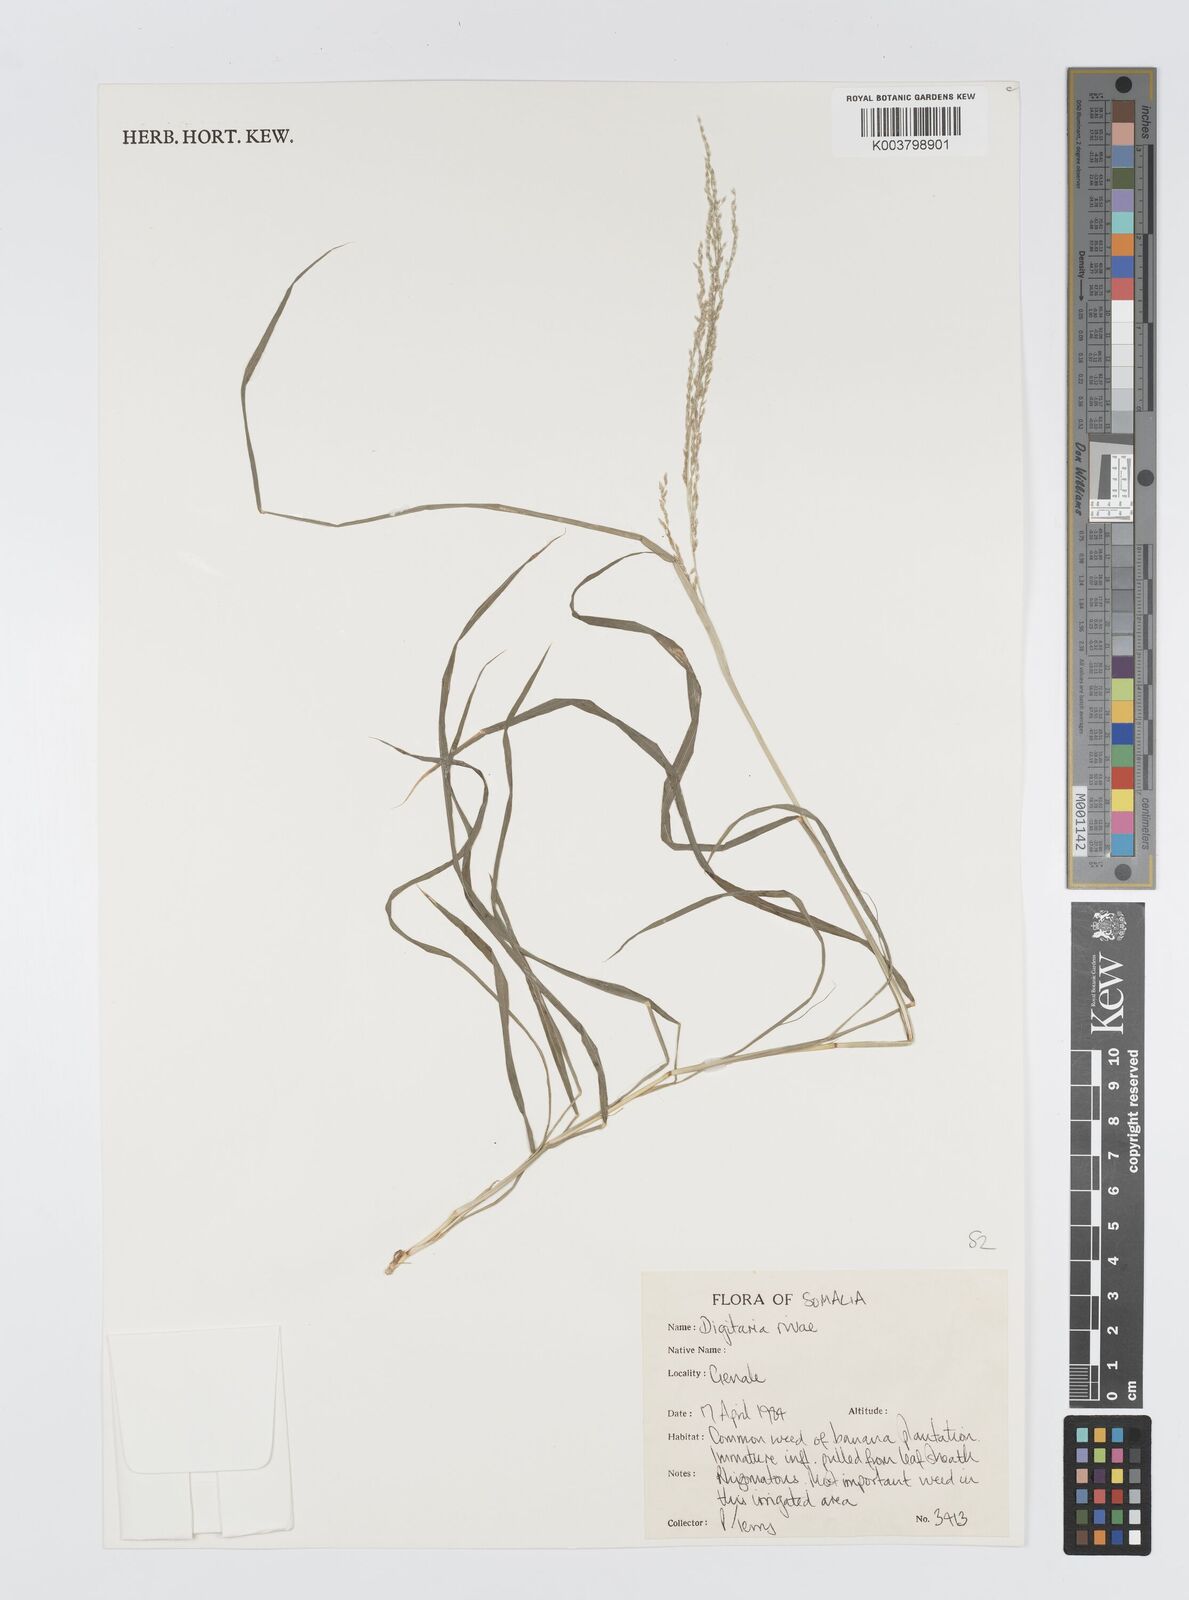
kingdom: Plantae
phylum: Tracheophyta
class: Liliopsida
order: Poales
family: Poaceae
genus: Digitaria
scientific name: Digitaria rivae
